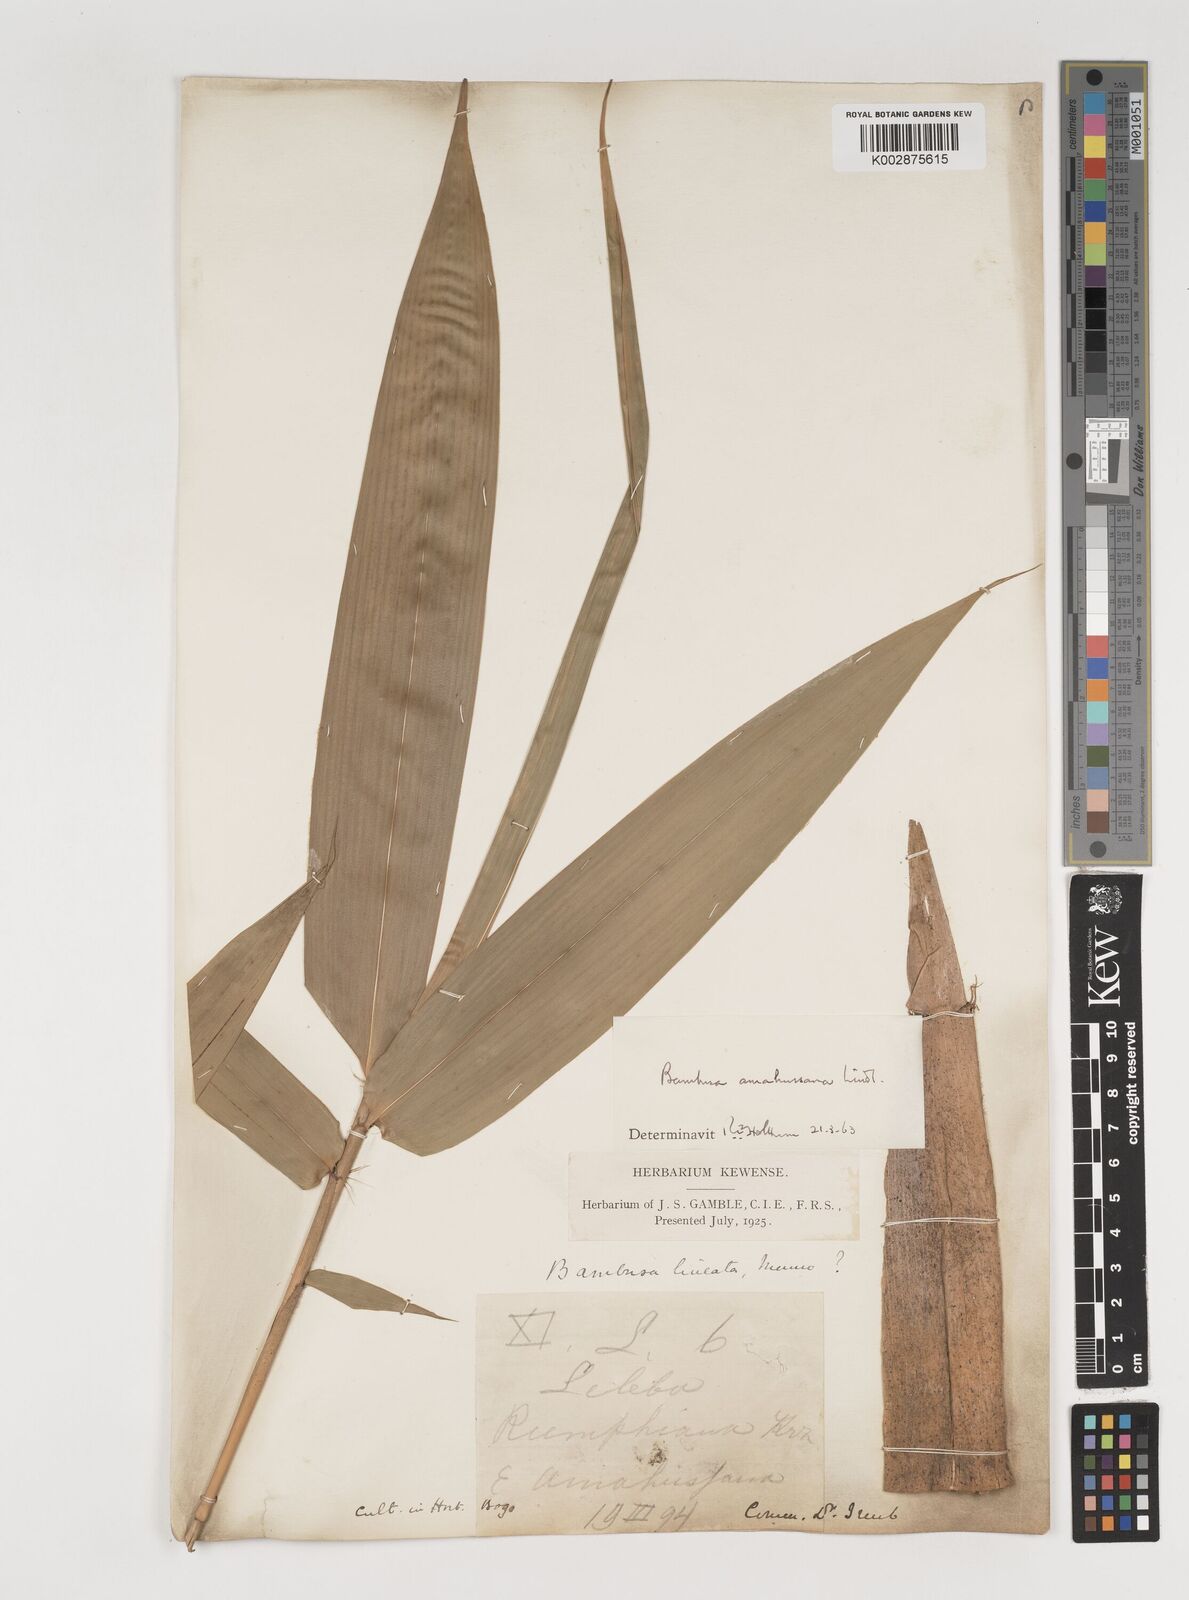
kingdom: Plantae
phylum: Tracheophyta
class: Liliopsida
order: Poales
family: Poaceae
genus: Neololeba
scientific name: Neololeba amahussana
